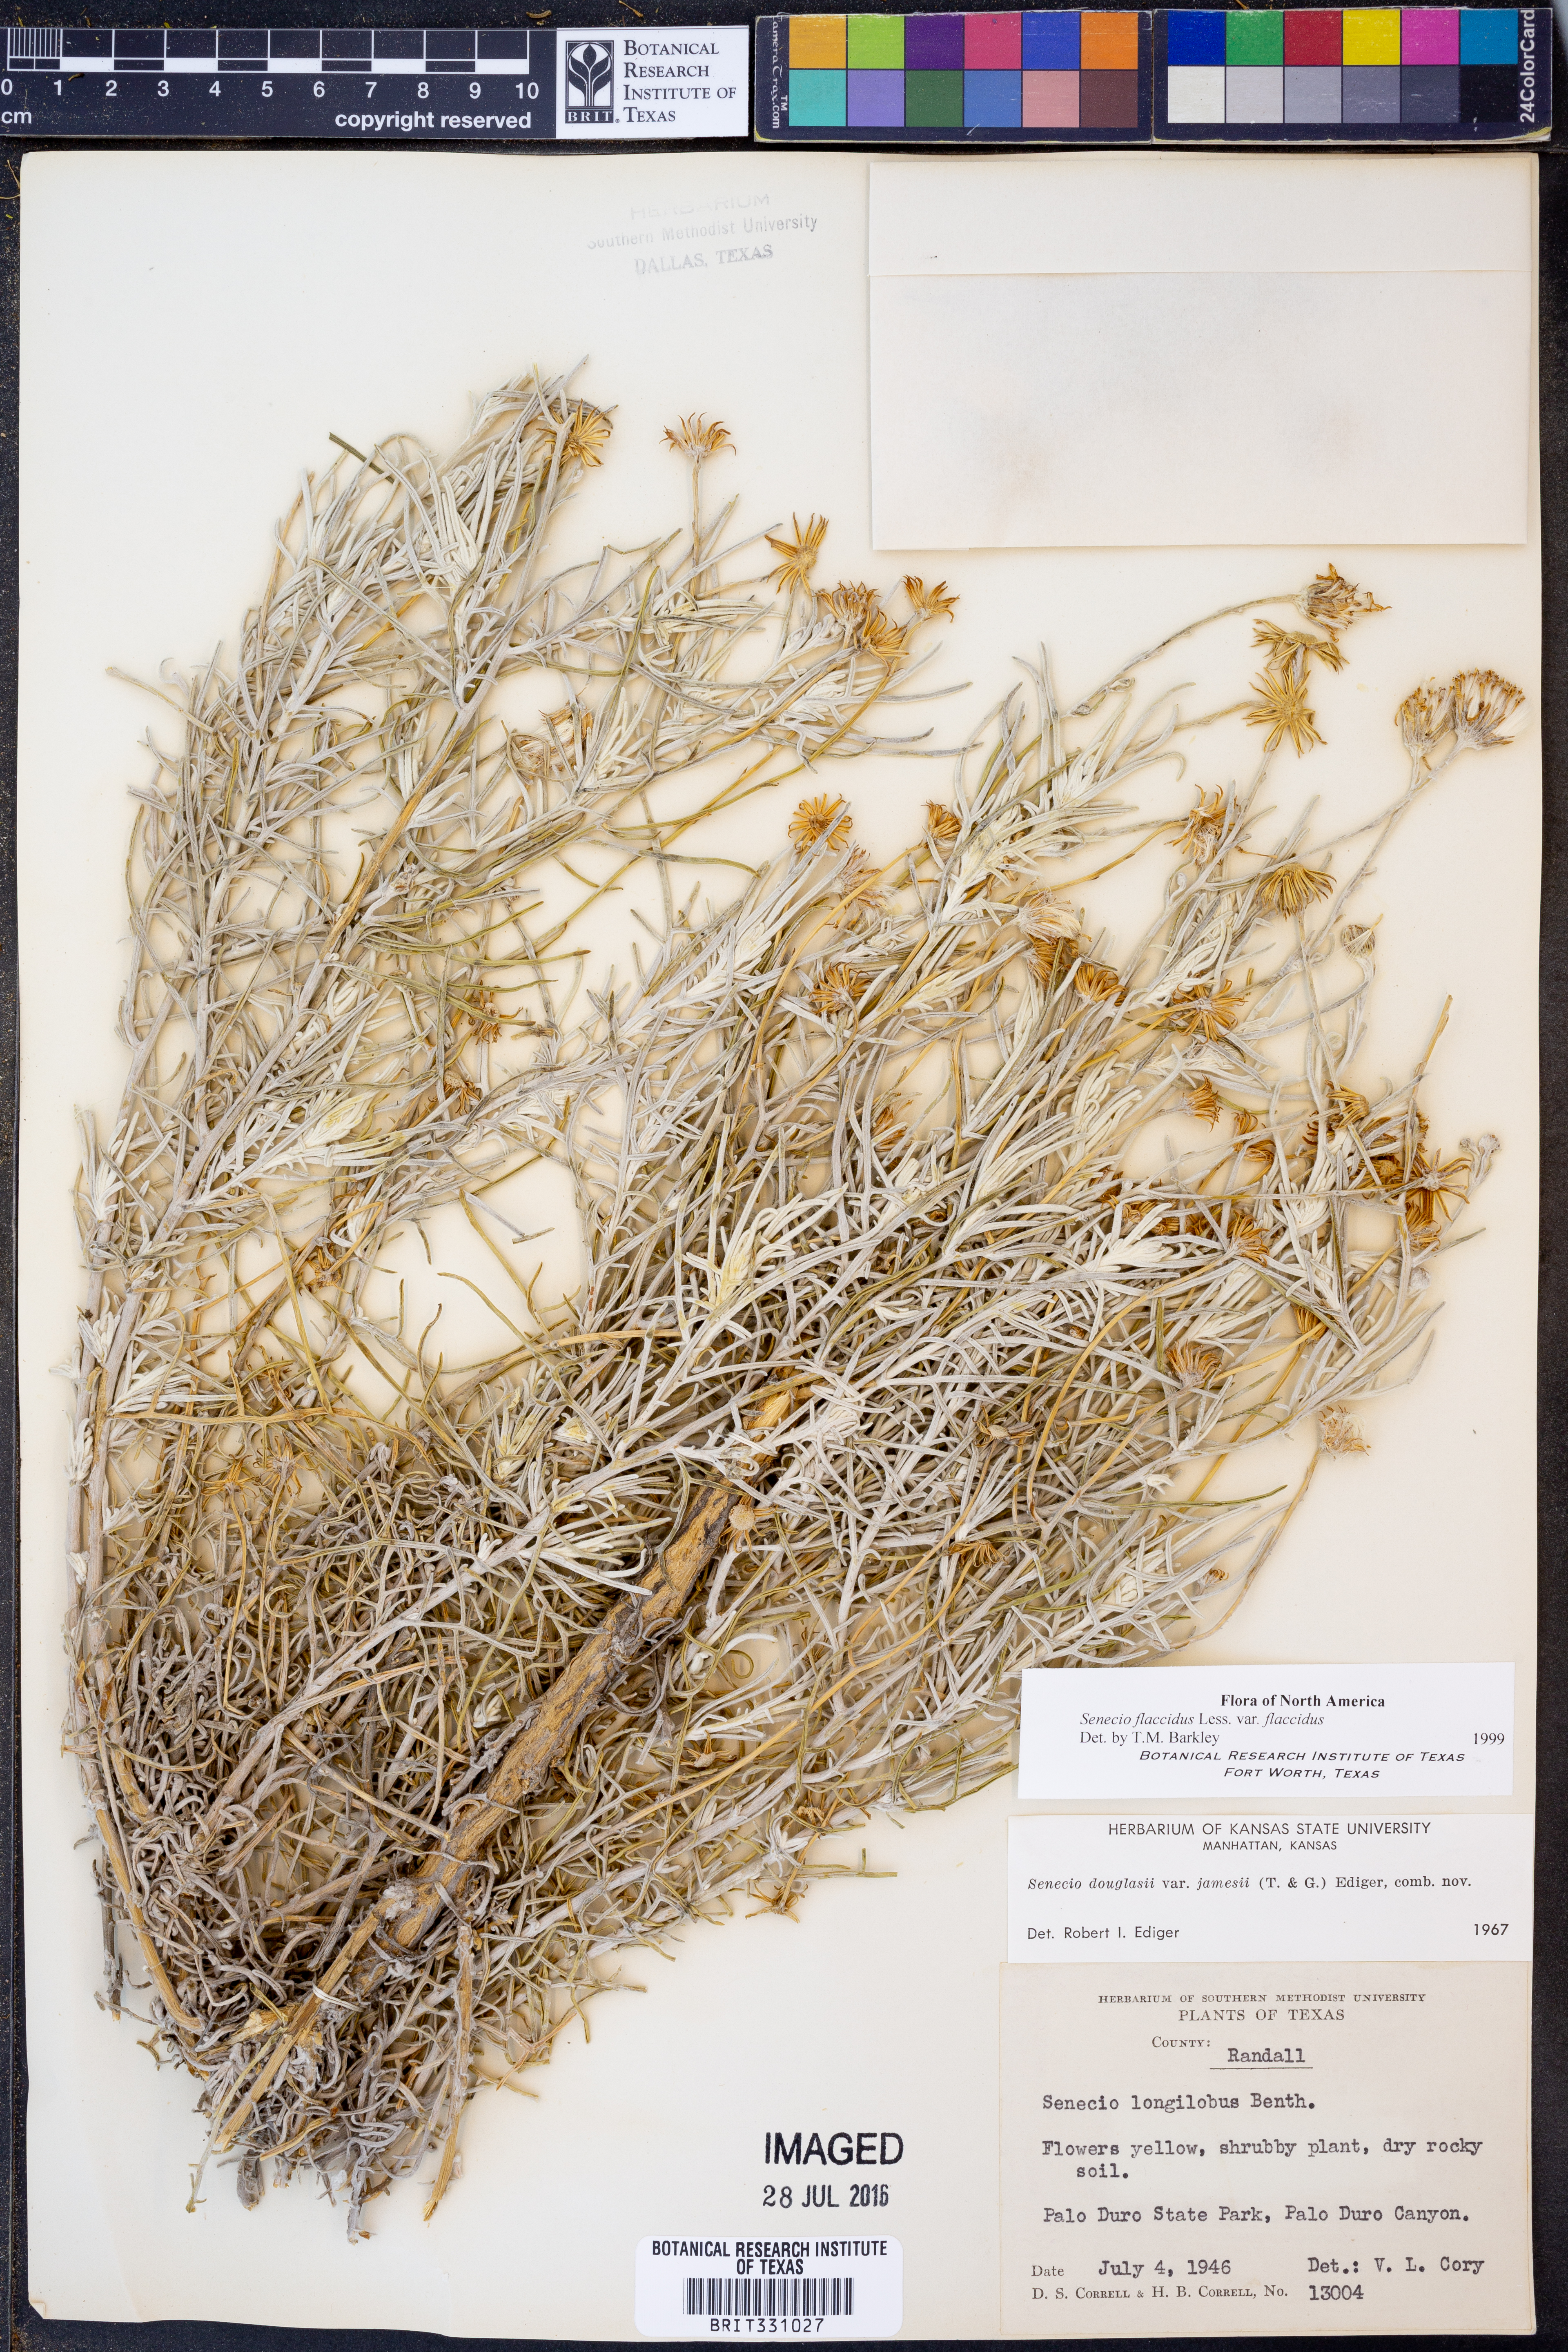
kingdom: Plantae
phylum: Tracheophyta
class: Magnoliopsida
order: Asterales
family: Asteraceae
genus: Senecio
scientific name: Senecio flaccidus
